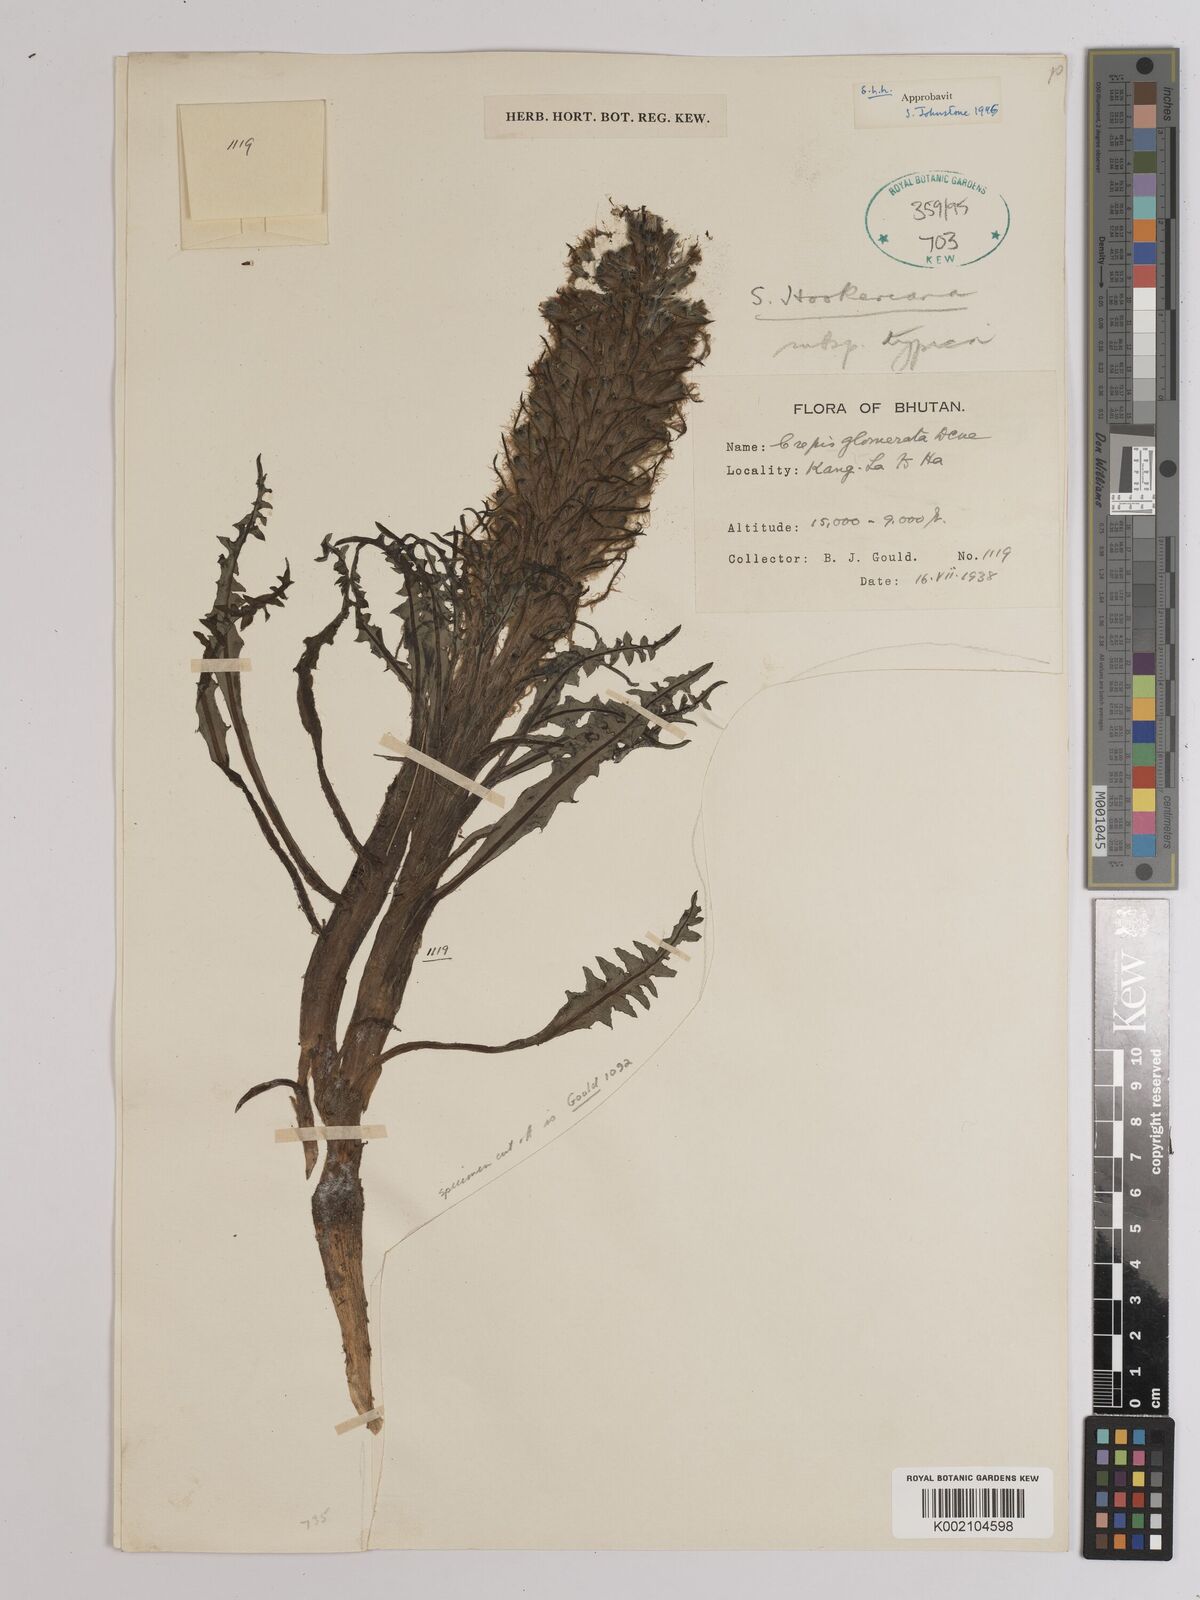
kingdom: Plantae
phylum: Tracheophyta
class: Magnoliopsida
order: Asterales
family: Asteraceae
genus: Soroseris
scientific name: Soroseris hookeriana
